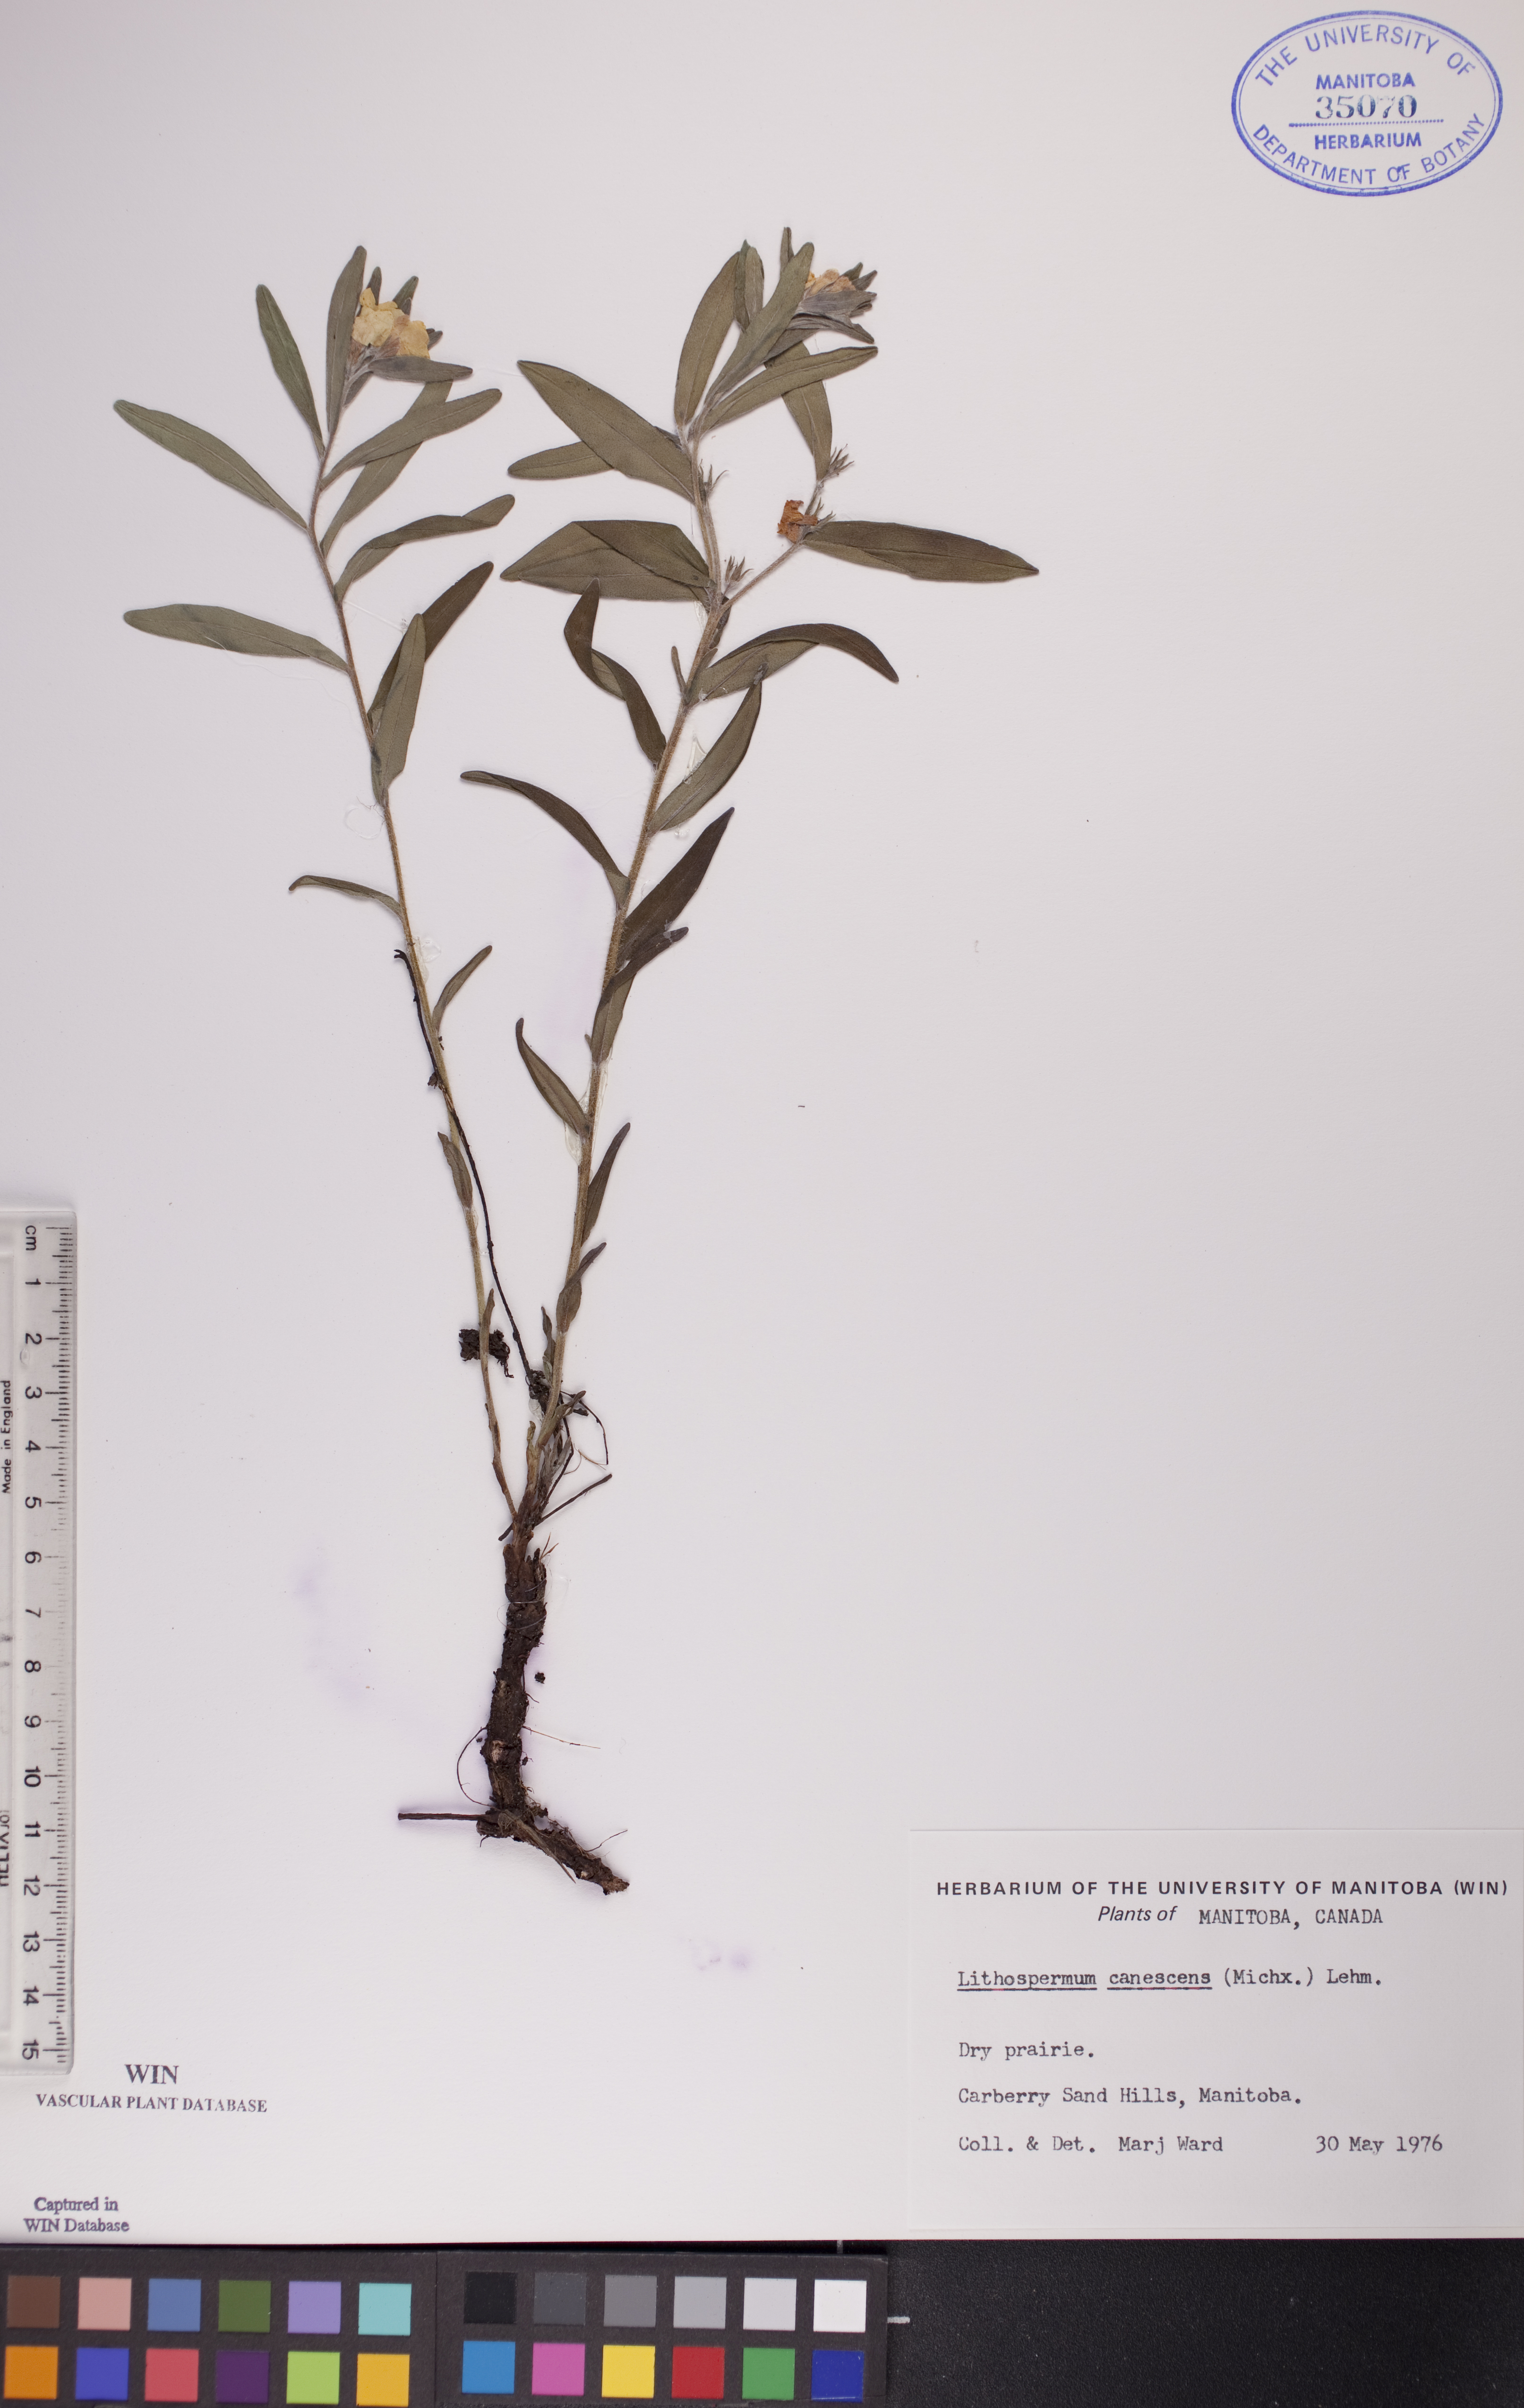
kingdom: Plantae
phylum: Tracheophyta
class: Magnoliopsida
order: Boraginales
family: Boraginaceae
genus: Lithospermum
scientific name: Lithospermum canescens
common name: Hoary puccoon
